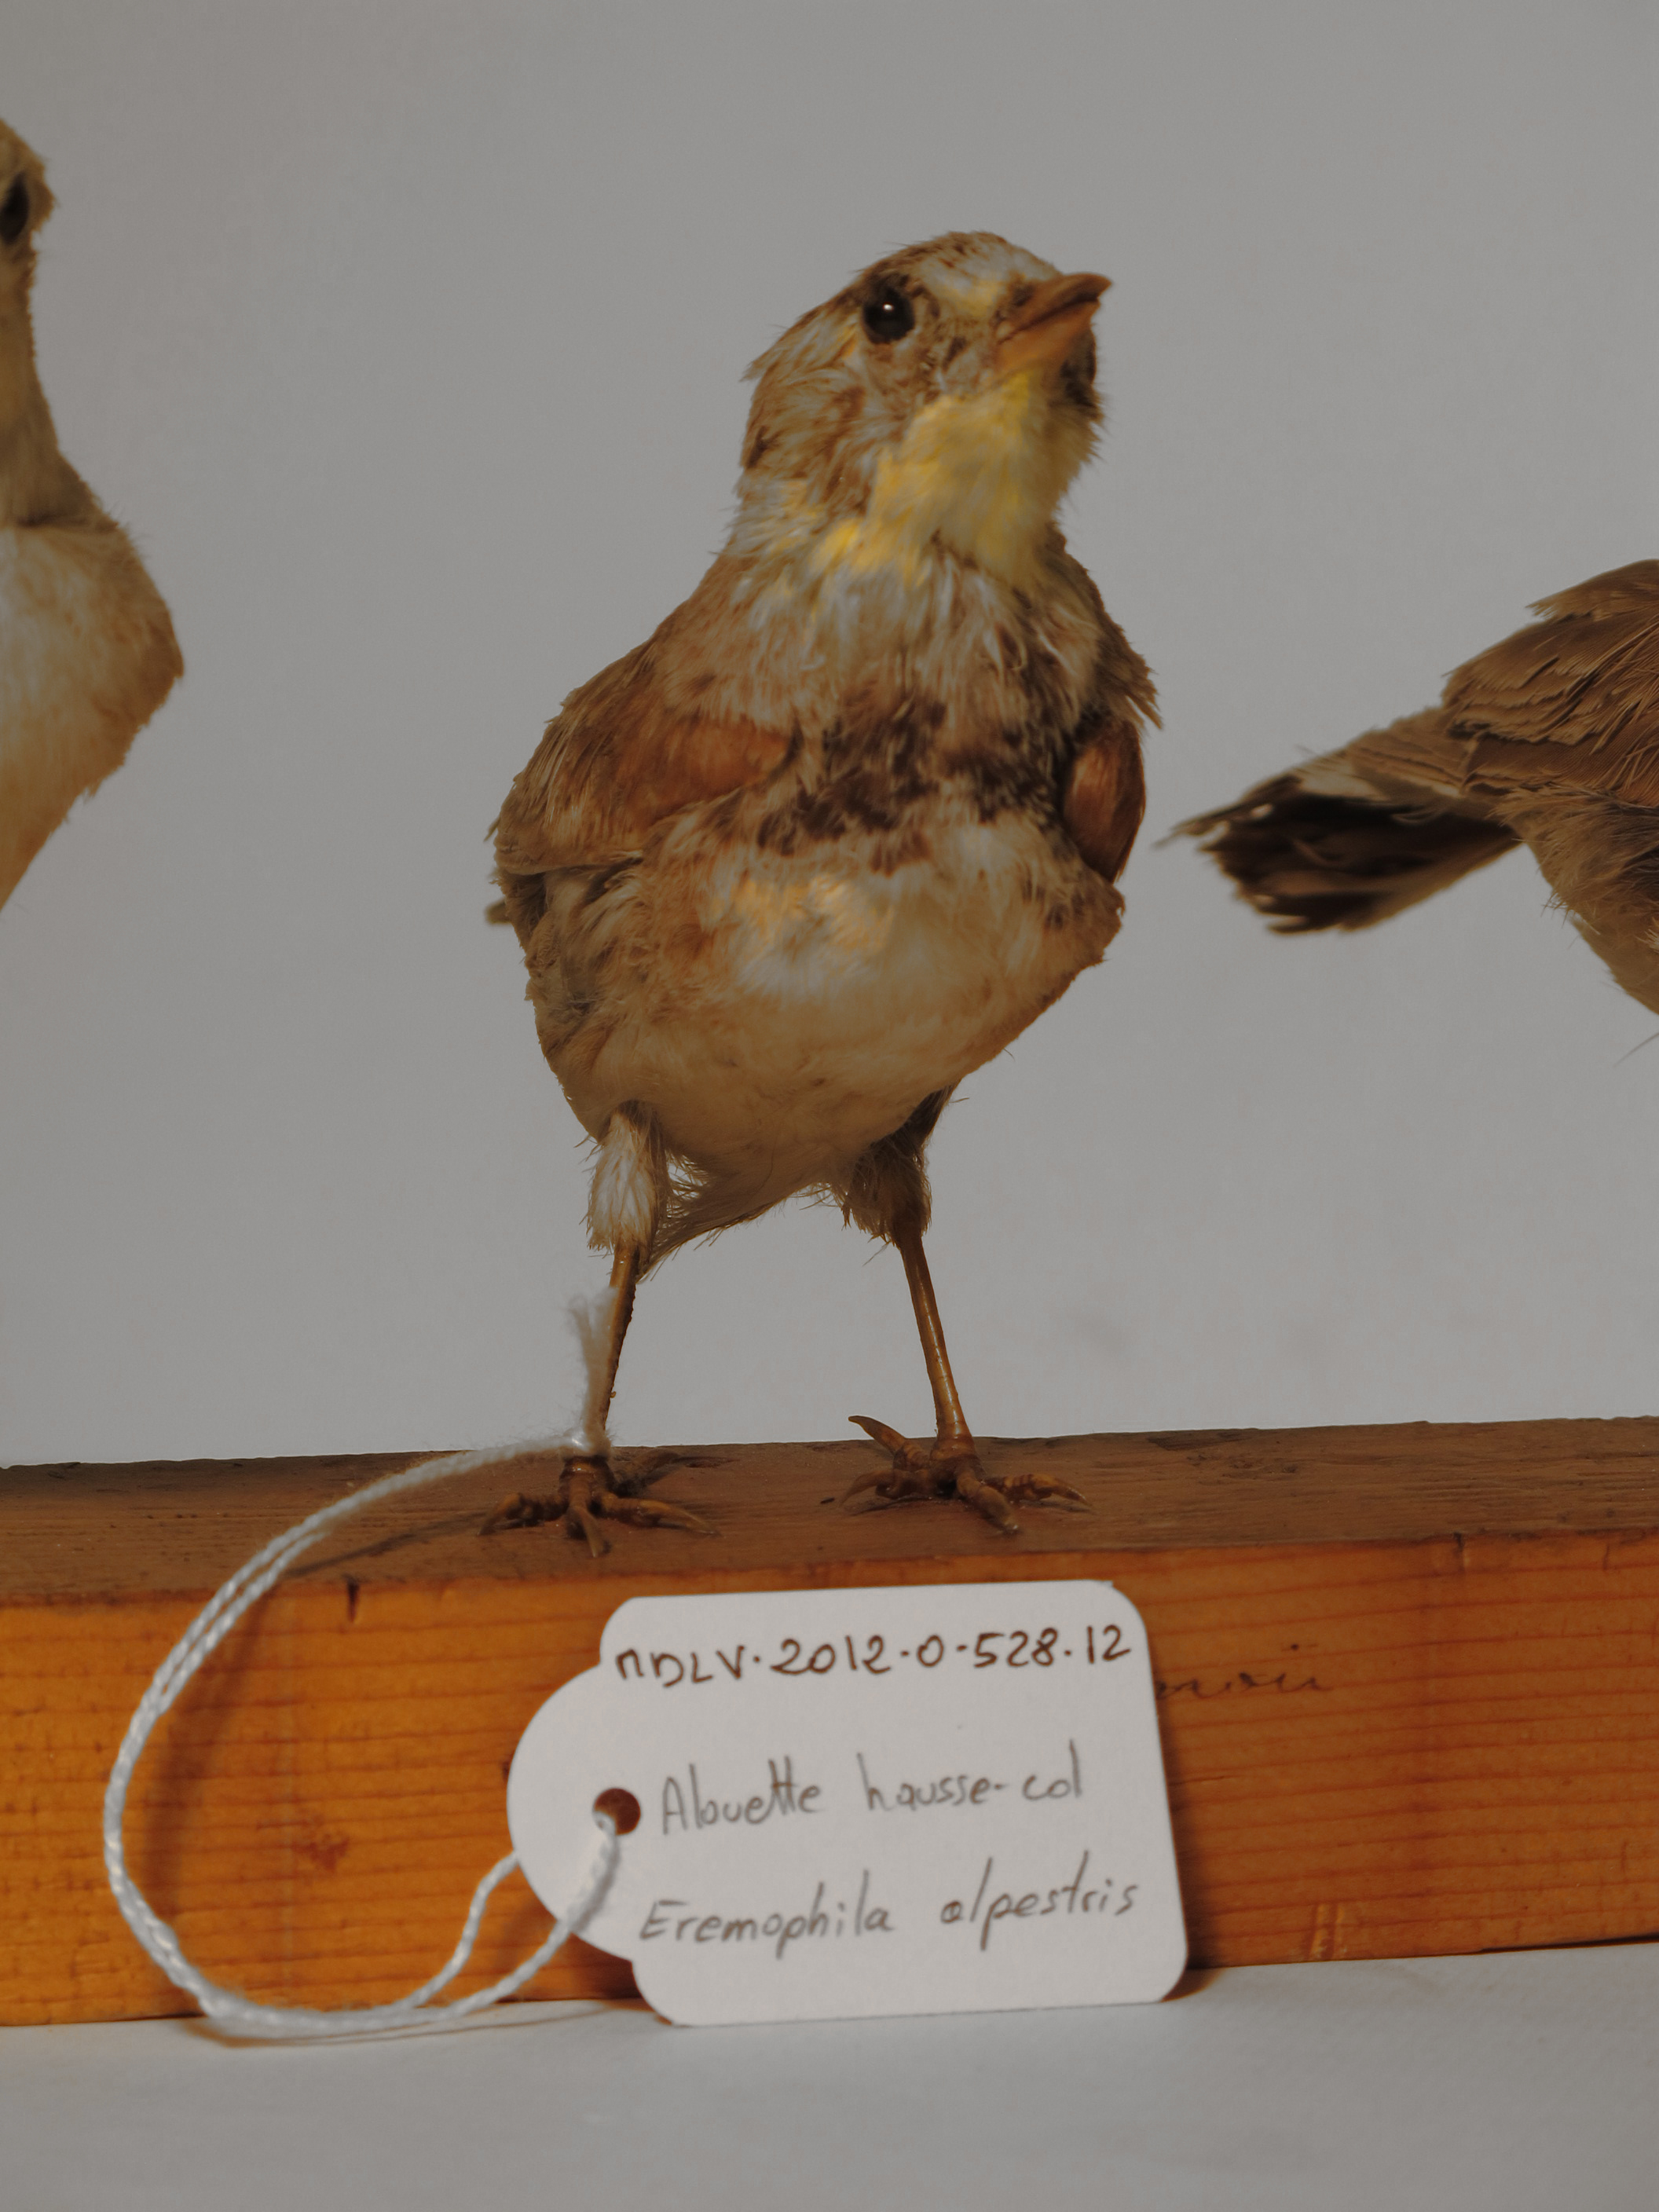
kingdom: Animalia
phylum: Chordata
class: Aves
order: Passeriformes
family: Alaudidae
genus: Eremophila
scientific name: Eremophila alpestris
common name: Horned Lark
